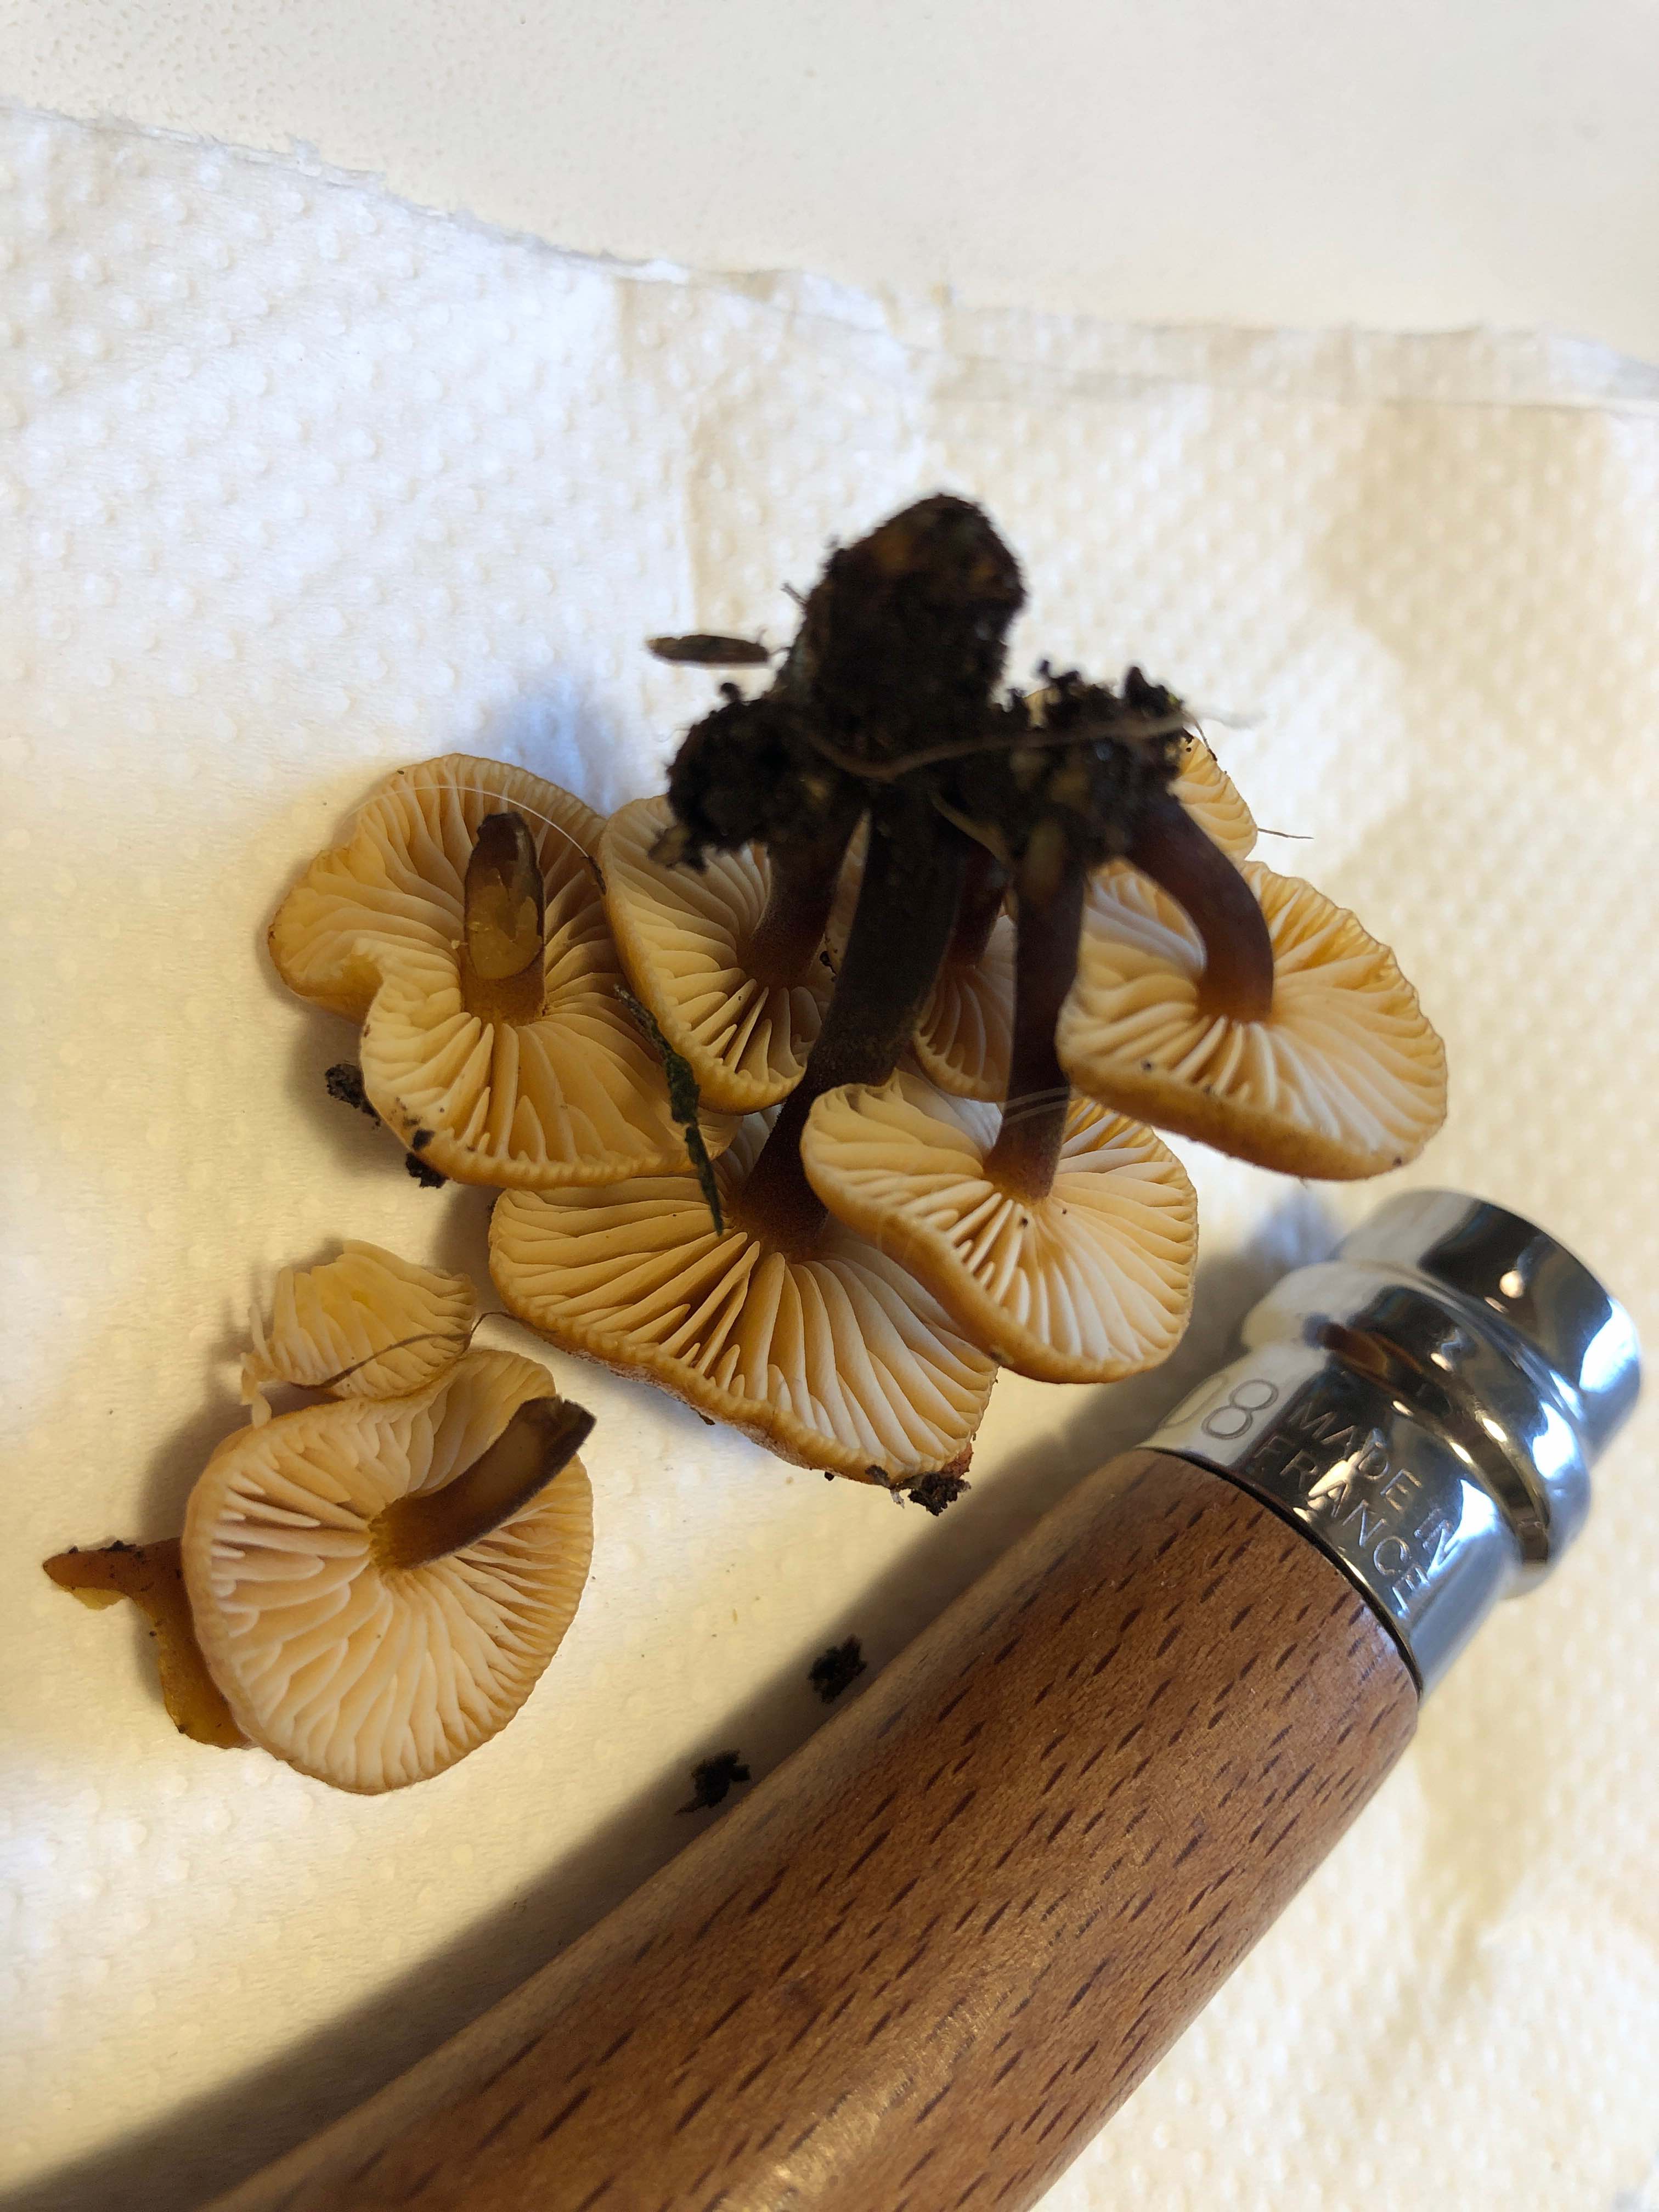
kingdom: Fungi
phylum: Basidiomycota
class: Agaricomycetes
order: Agaricales
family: Physalacriaceae
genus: Flammulina
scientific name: Flammulina velutipes
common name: gul fløjlsfod
